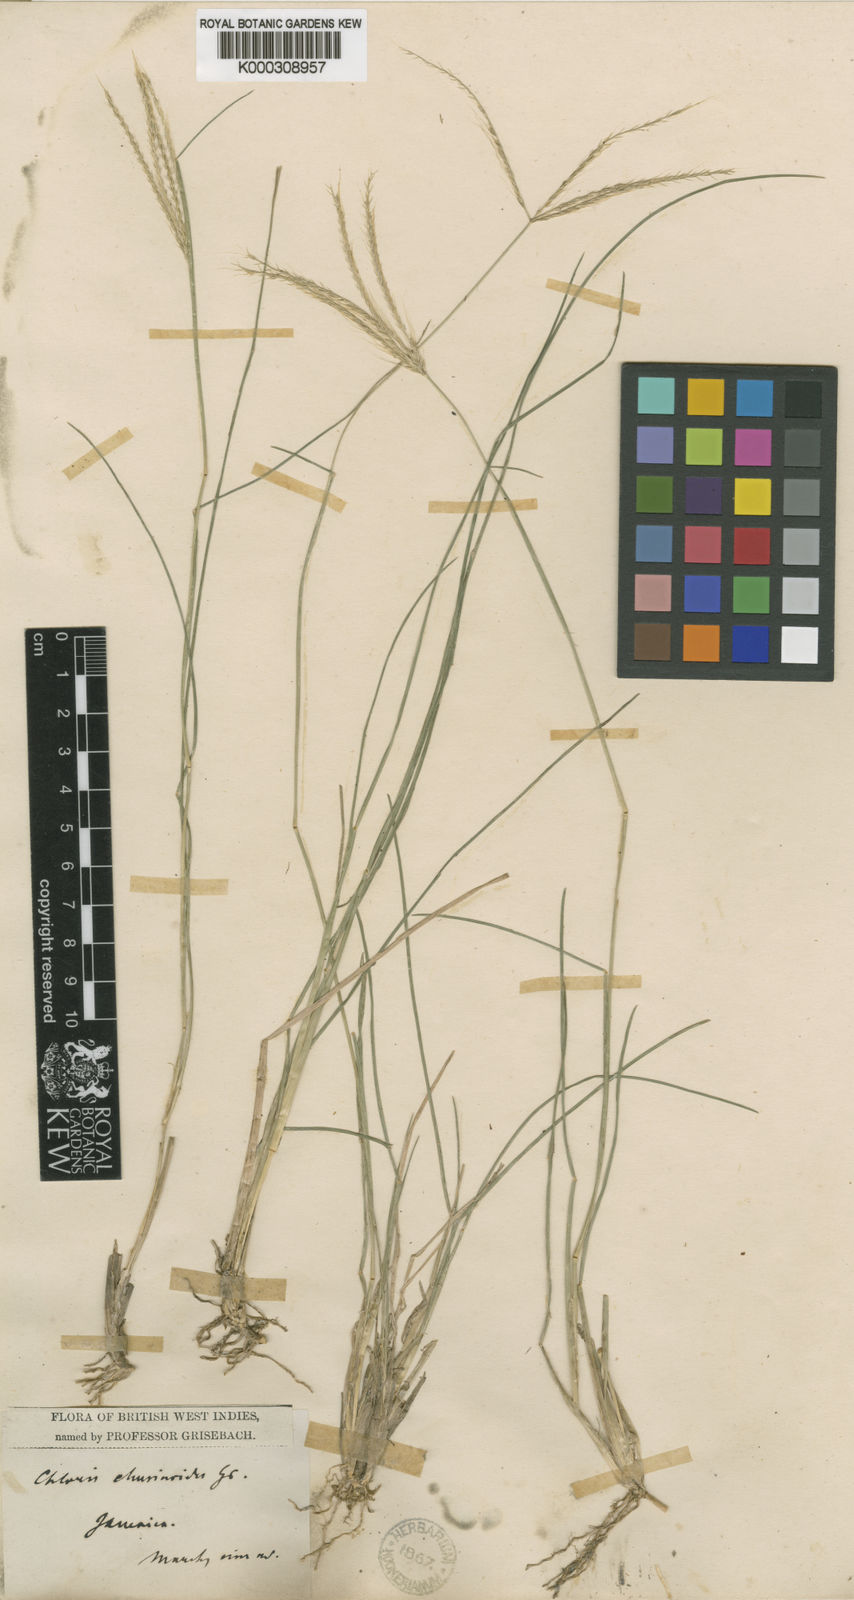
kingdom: Plantae
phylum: Tracheophyta
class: Liliopsida
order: Poales
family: Poaceae
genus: Chloris
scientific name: Chloris
